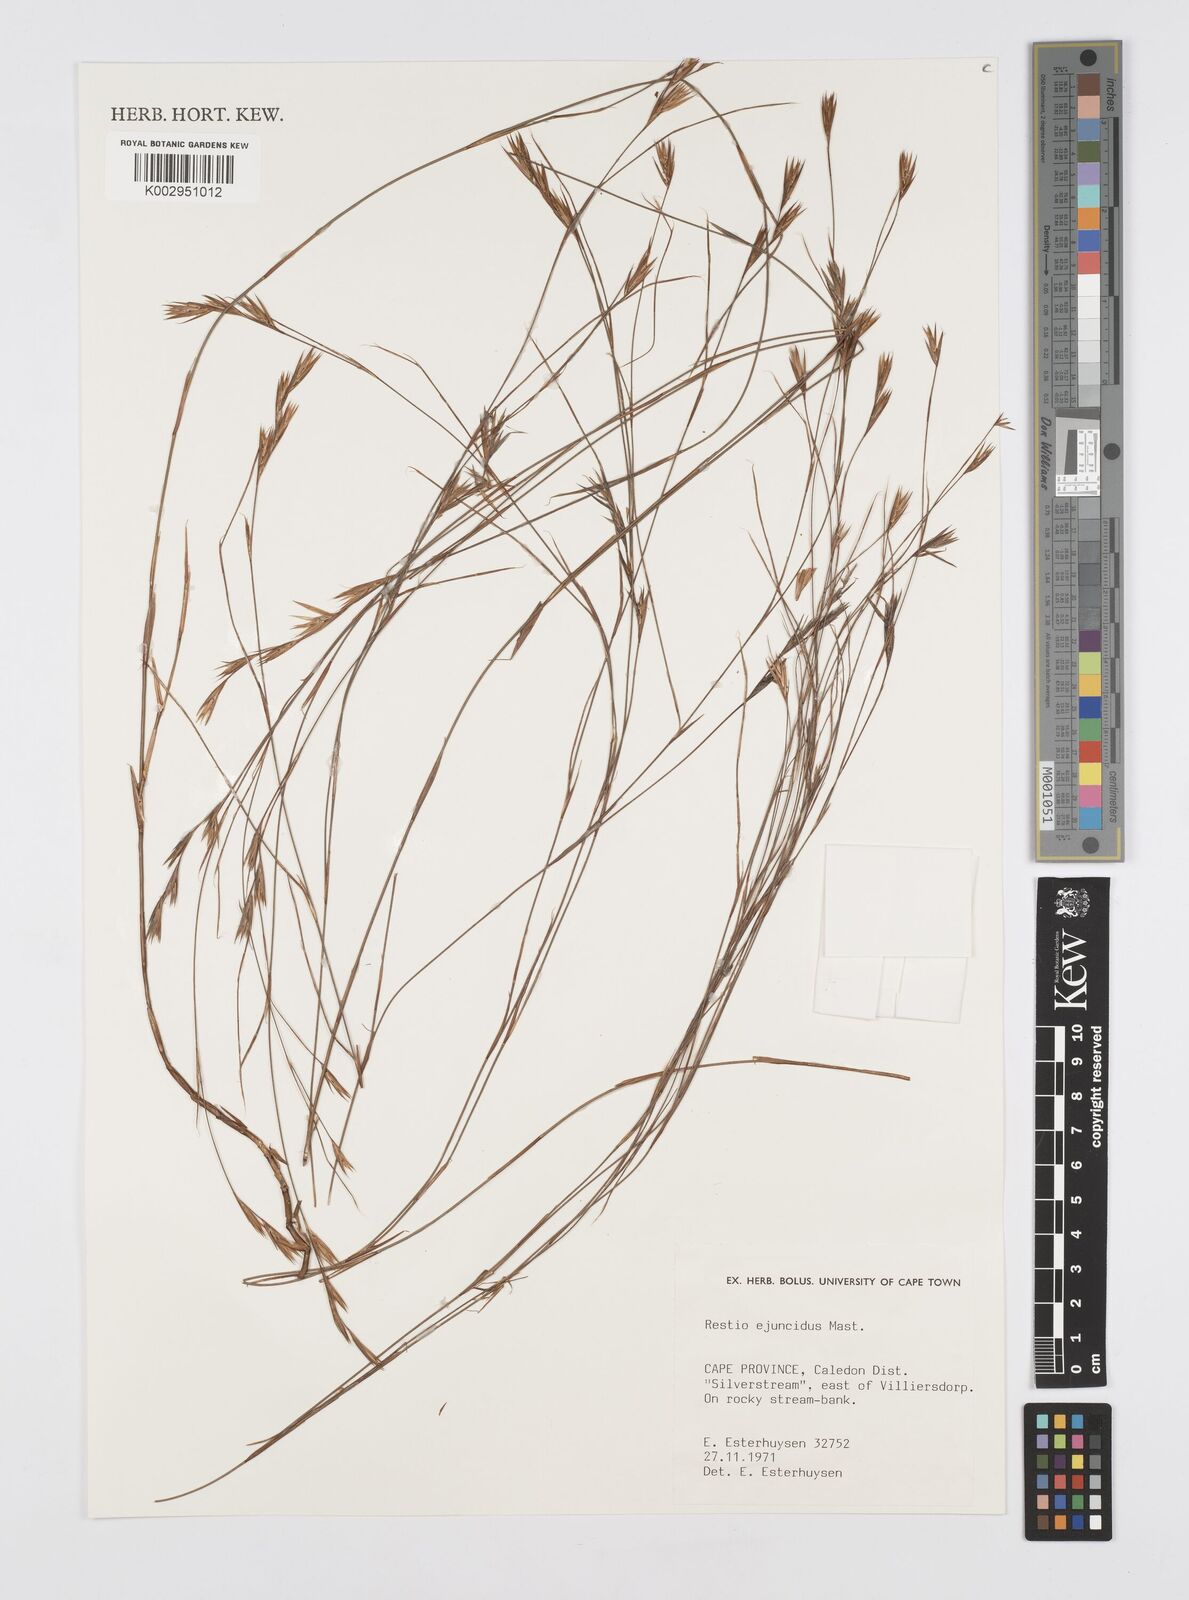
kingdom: Plantae
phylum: Tracheophyta
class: Liliopsida
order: Poales
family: Restionaceae
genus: Restio
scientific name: Restio ejuncidus
